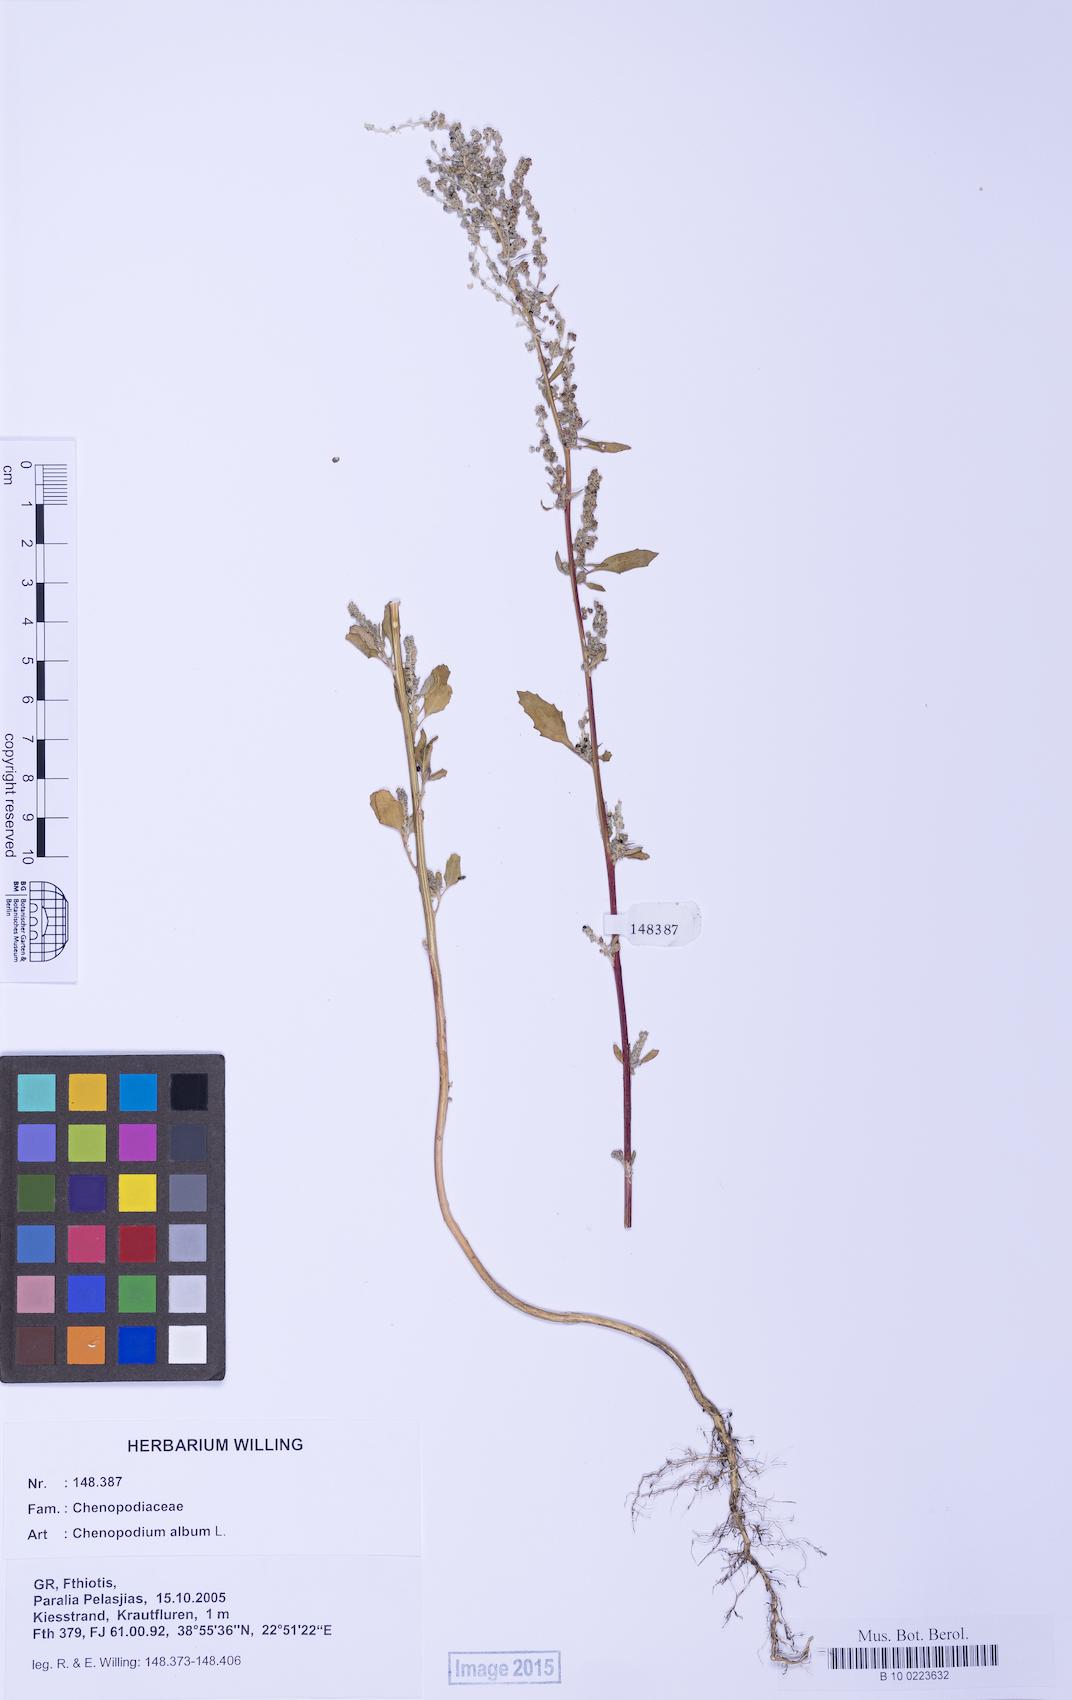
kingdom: Plantae
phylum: Tracheophyta
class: Magnoliopsida
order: Caryophyllales
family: Amaranthaceae
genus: Chenopodium
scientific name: Chenopodium album
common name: Fat-hen
